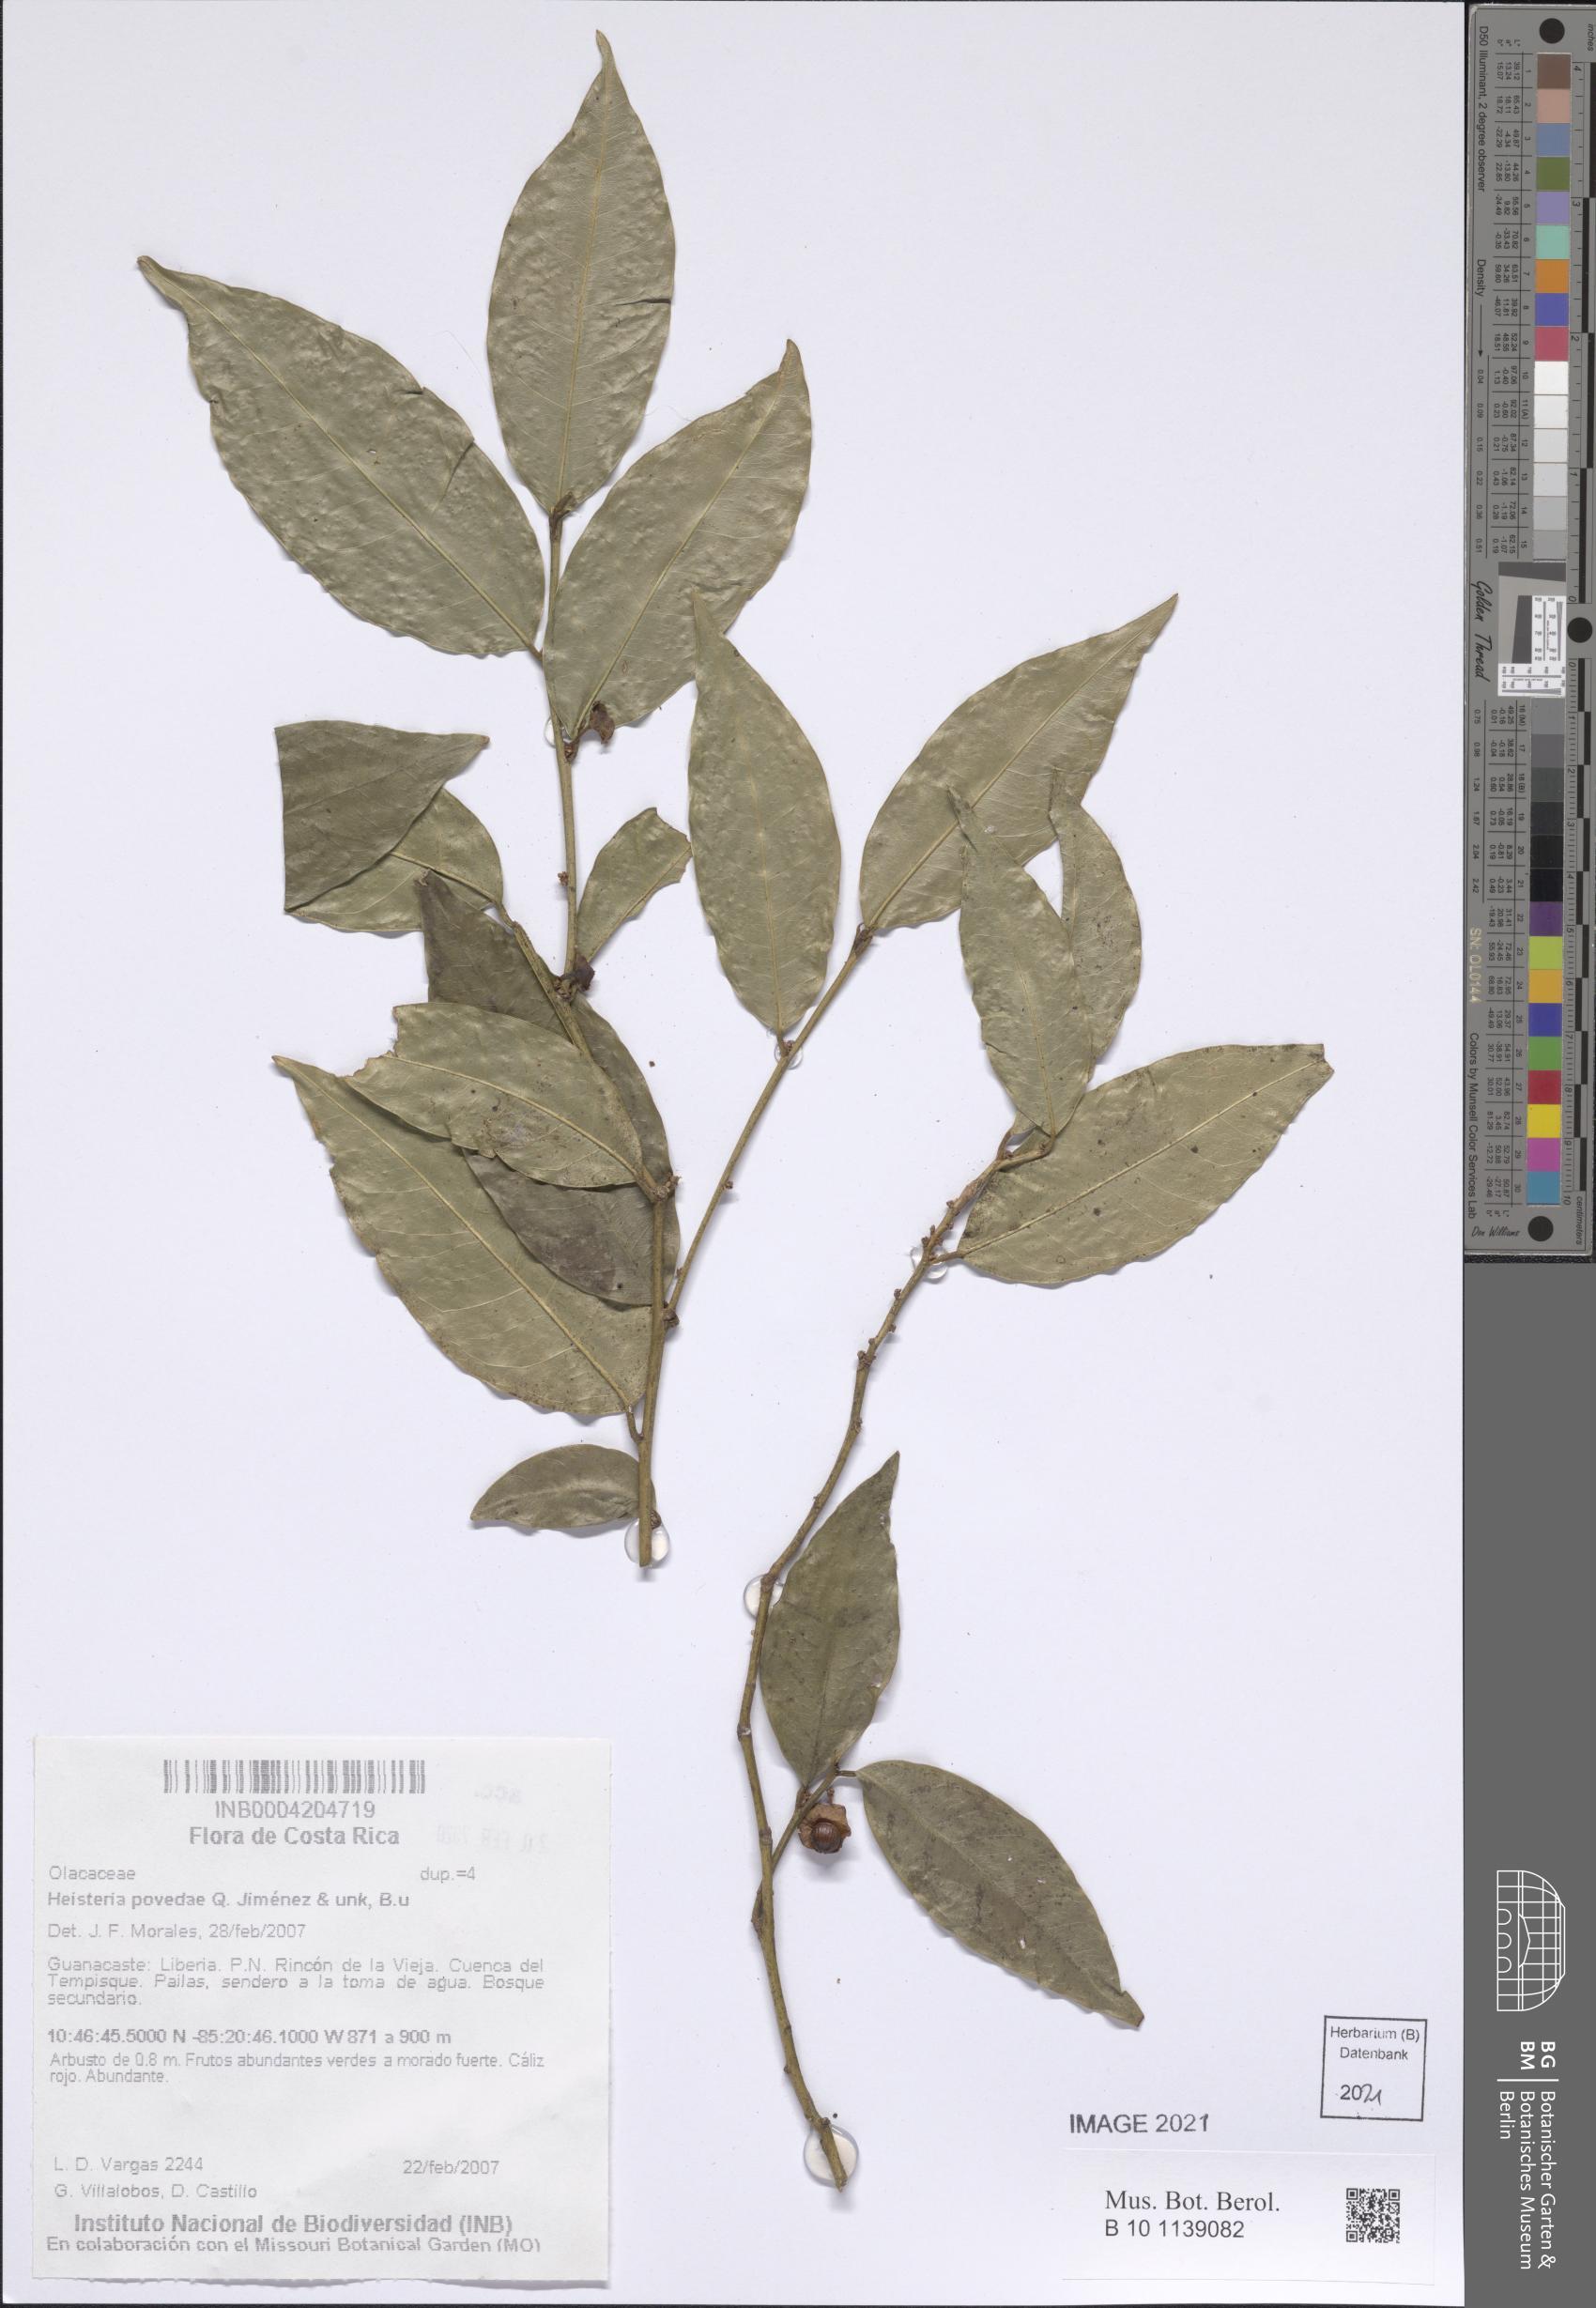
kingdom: Plantae
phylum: Tracheophyta
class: Magnoliopsida
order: Santalales
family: Erythropalaceae
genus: Heisteria
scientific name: Heisteria povedae
